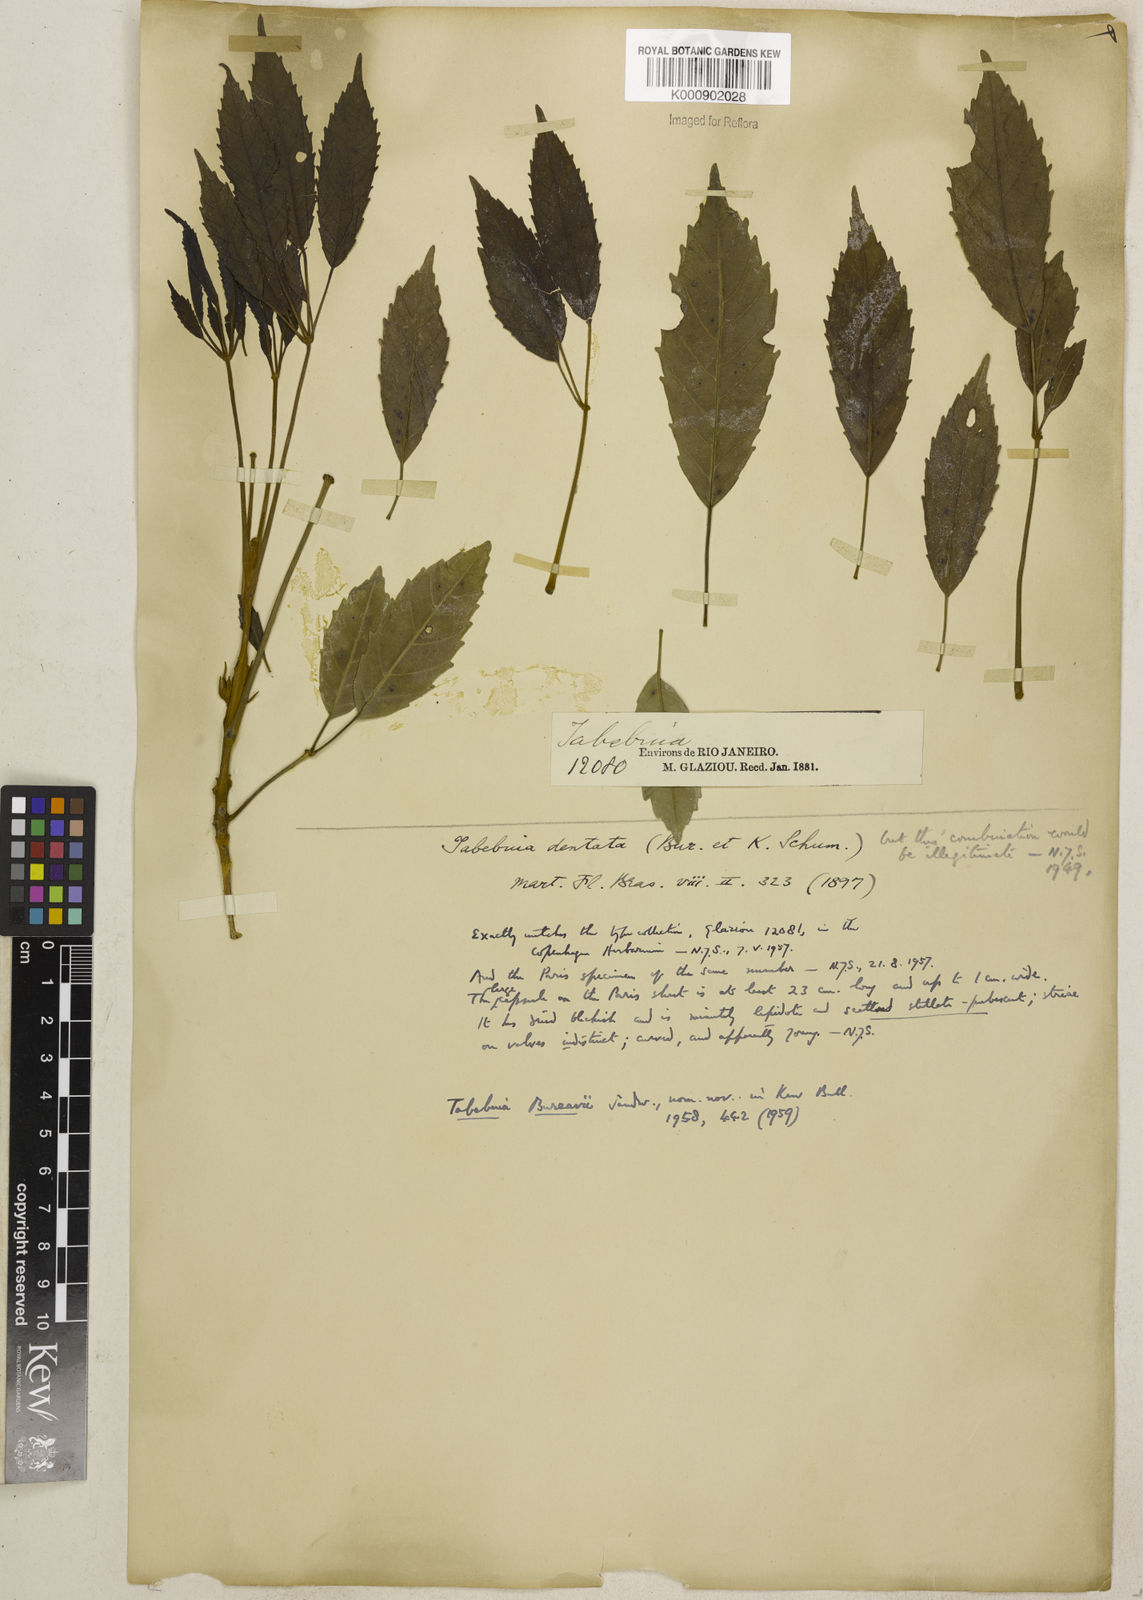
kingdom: Plantae
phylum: Tracheophyta
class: Magnoliopsida
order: Lamiales
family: Bignoniaceae
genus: Handroanthus
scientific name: Handroanthus bureavii
